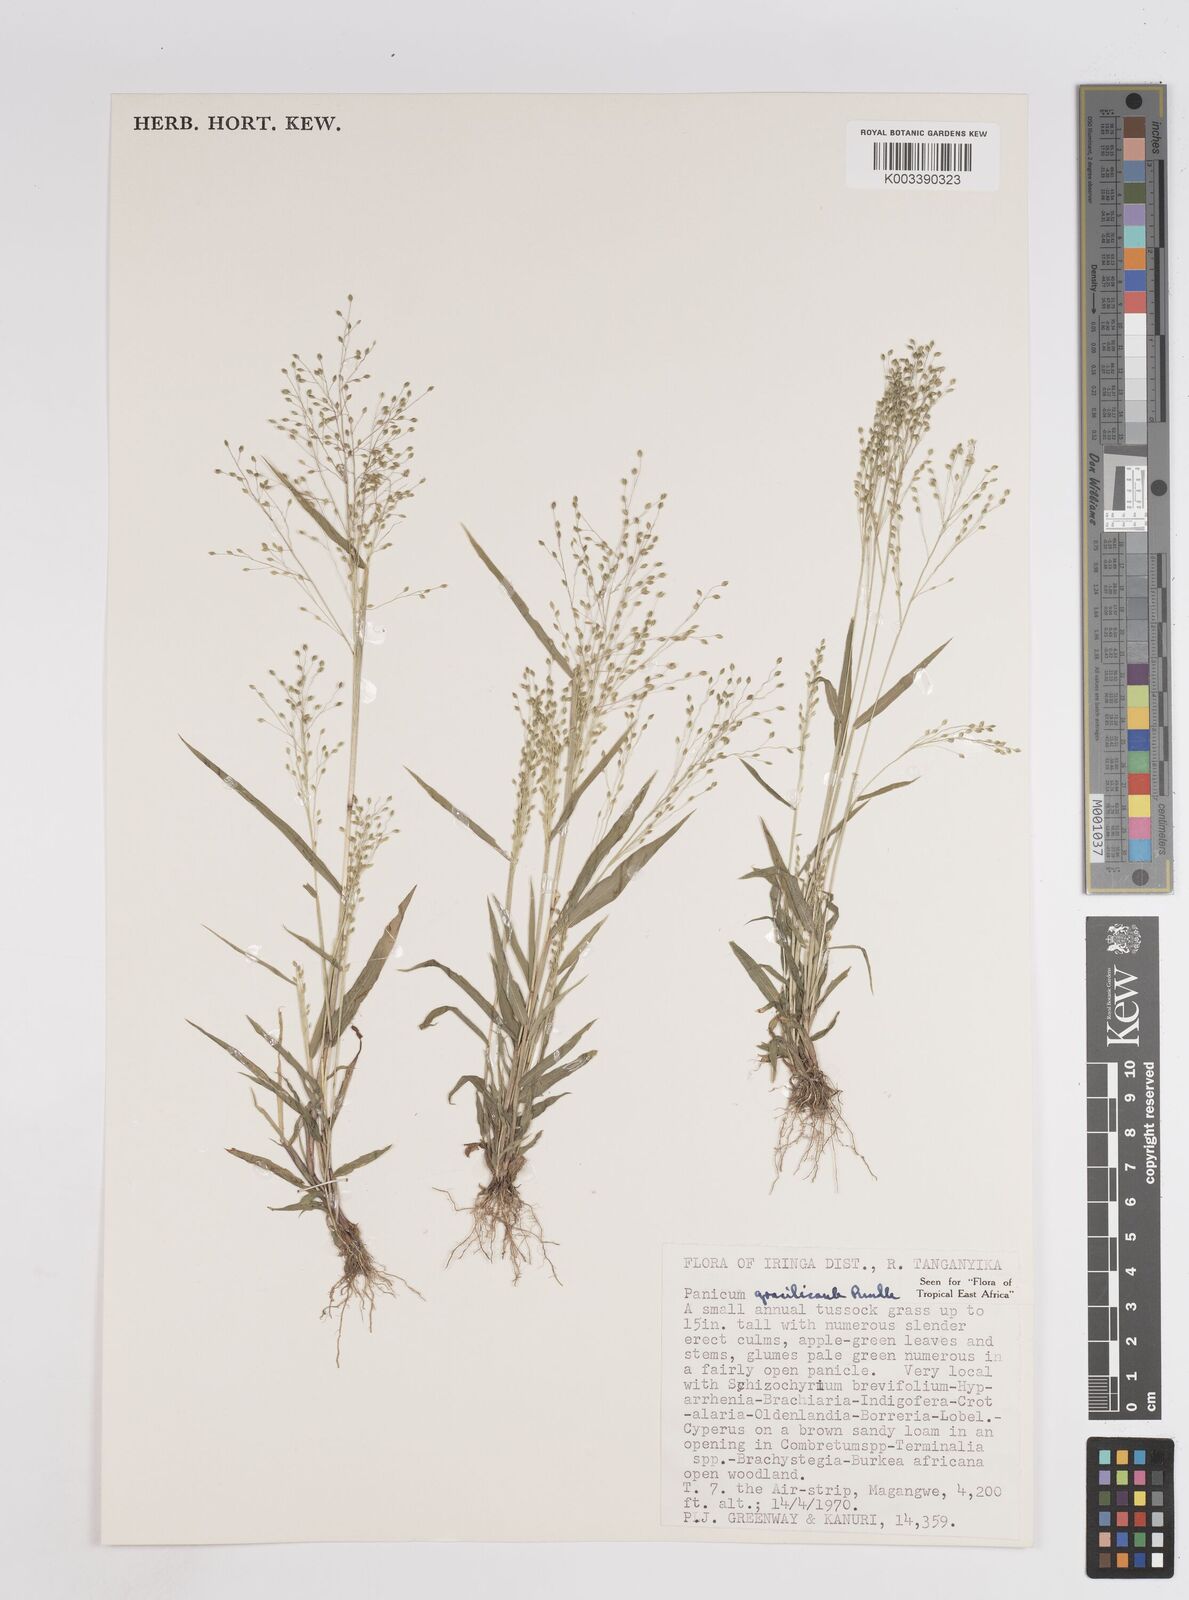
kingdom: Plantae
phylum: Tracheophyta
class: Liliopsida
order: Poales
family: Poaceae
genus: Trichanthecium
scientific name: Trichanthecium gracilicaule
